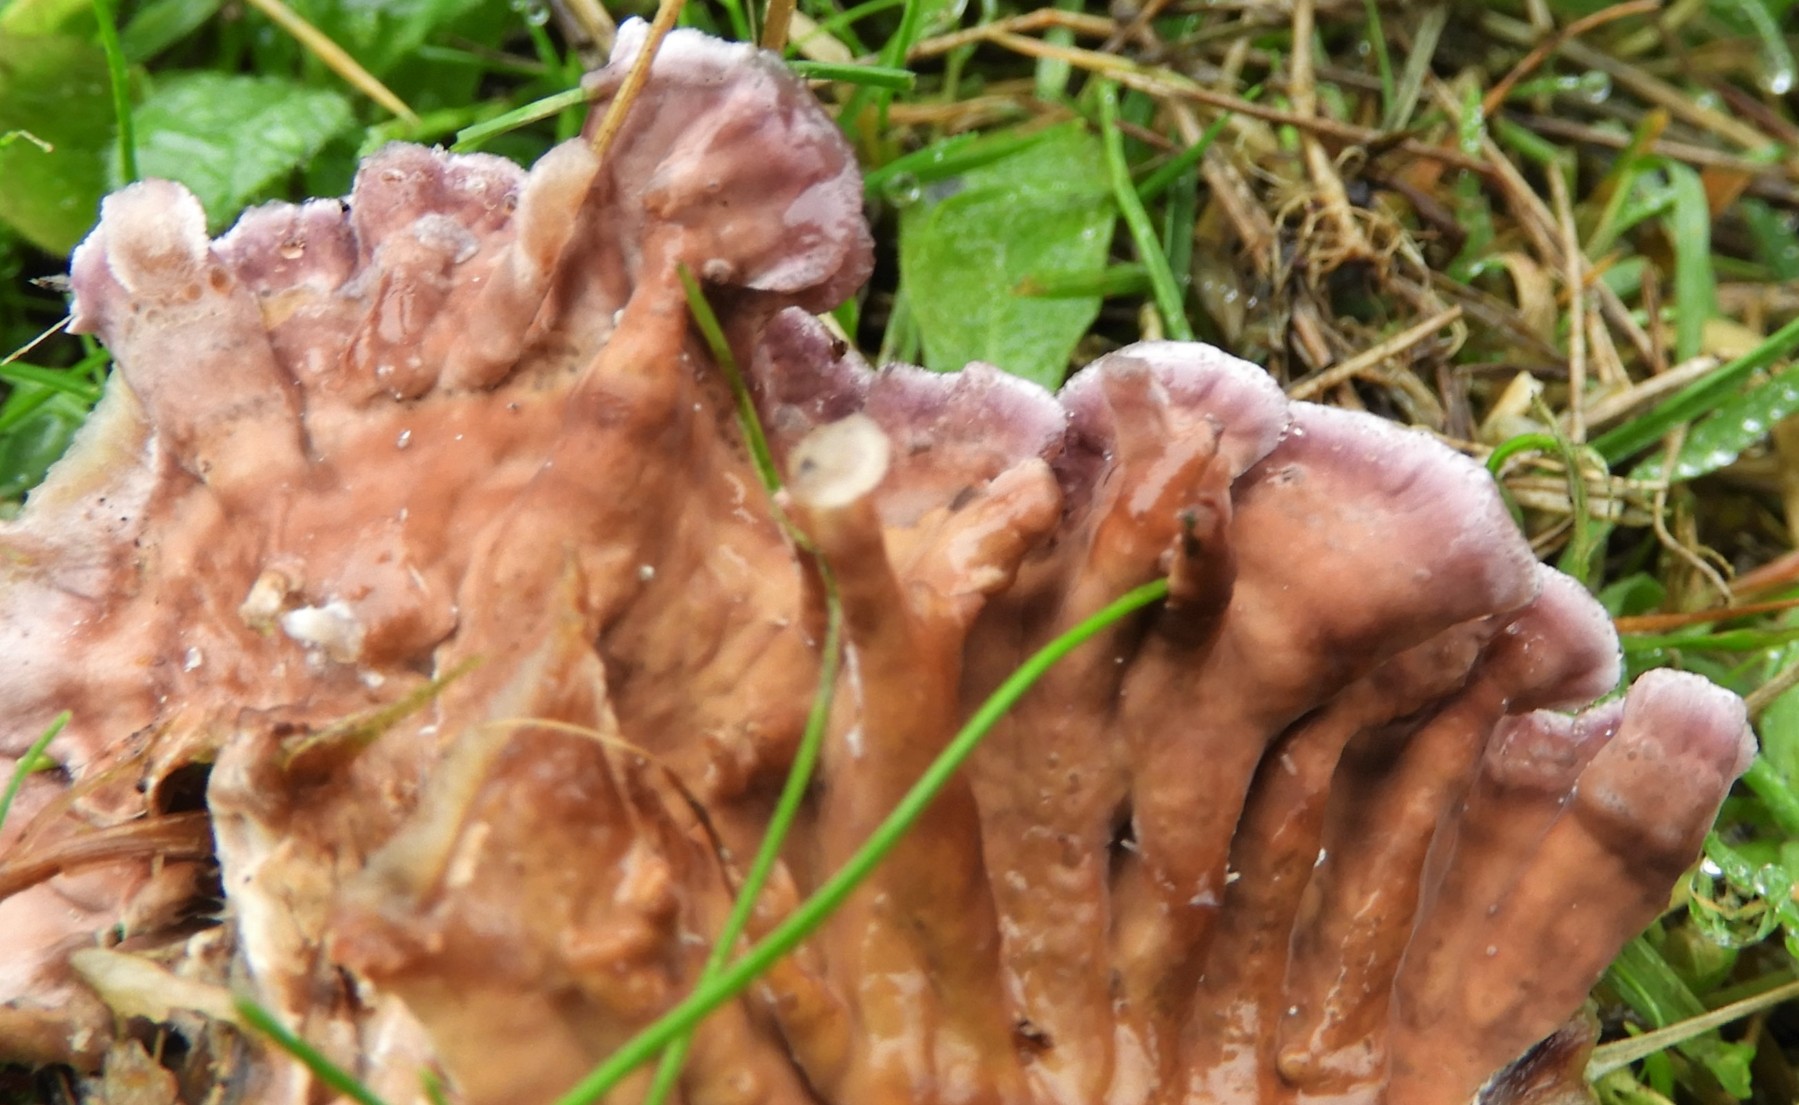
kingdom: Fungi
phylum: Basidiomycota
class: Agaricomycetes
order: Agaricales
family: Cyphellaceae
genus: Chondrostereum
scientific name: Chondrostereum purpureum
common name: purpurlædersvamp
